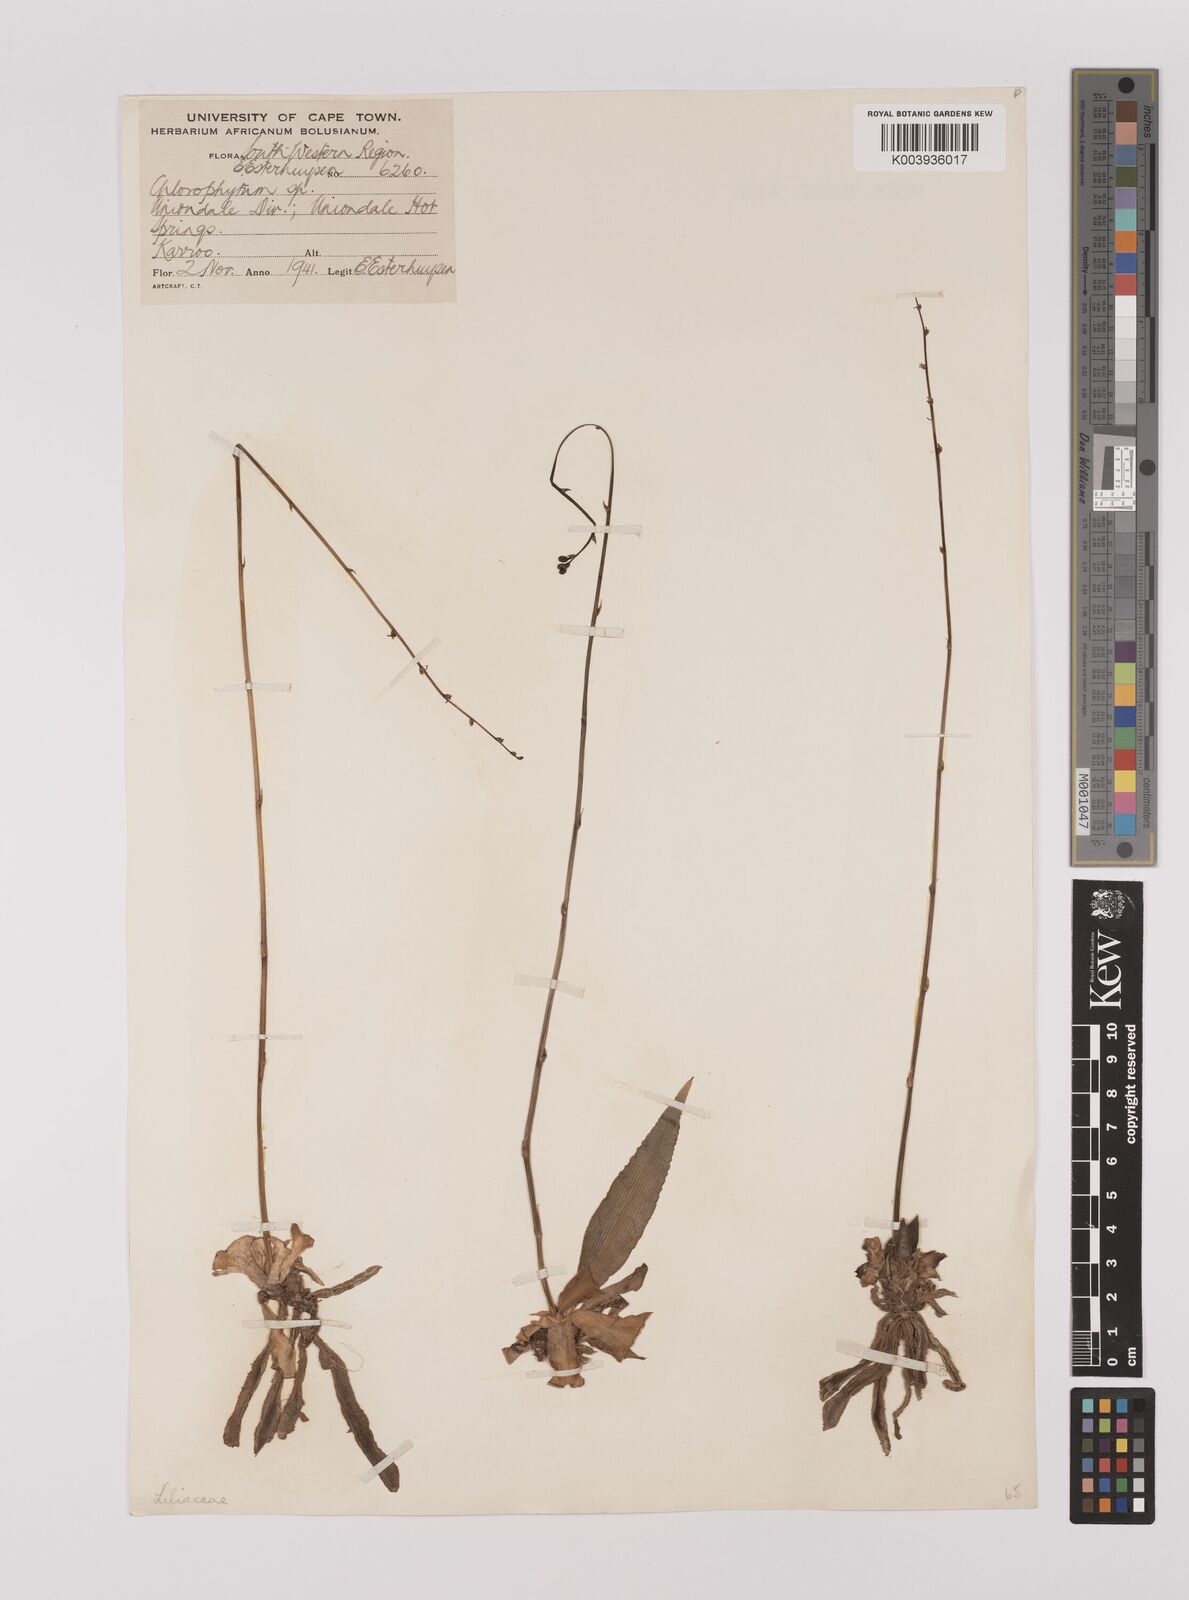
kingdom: Plantae
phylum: Tracheophyta
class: Liliopsida
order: Asparagales
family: Asparagaceae
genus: Chlorophytum
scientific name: Chlorophytum crispum
